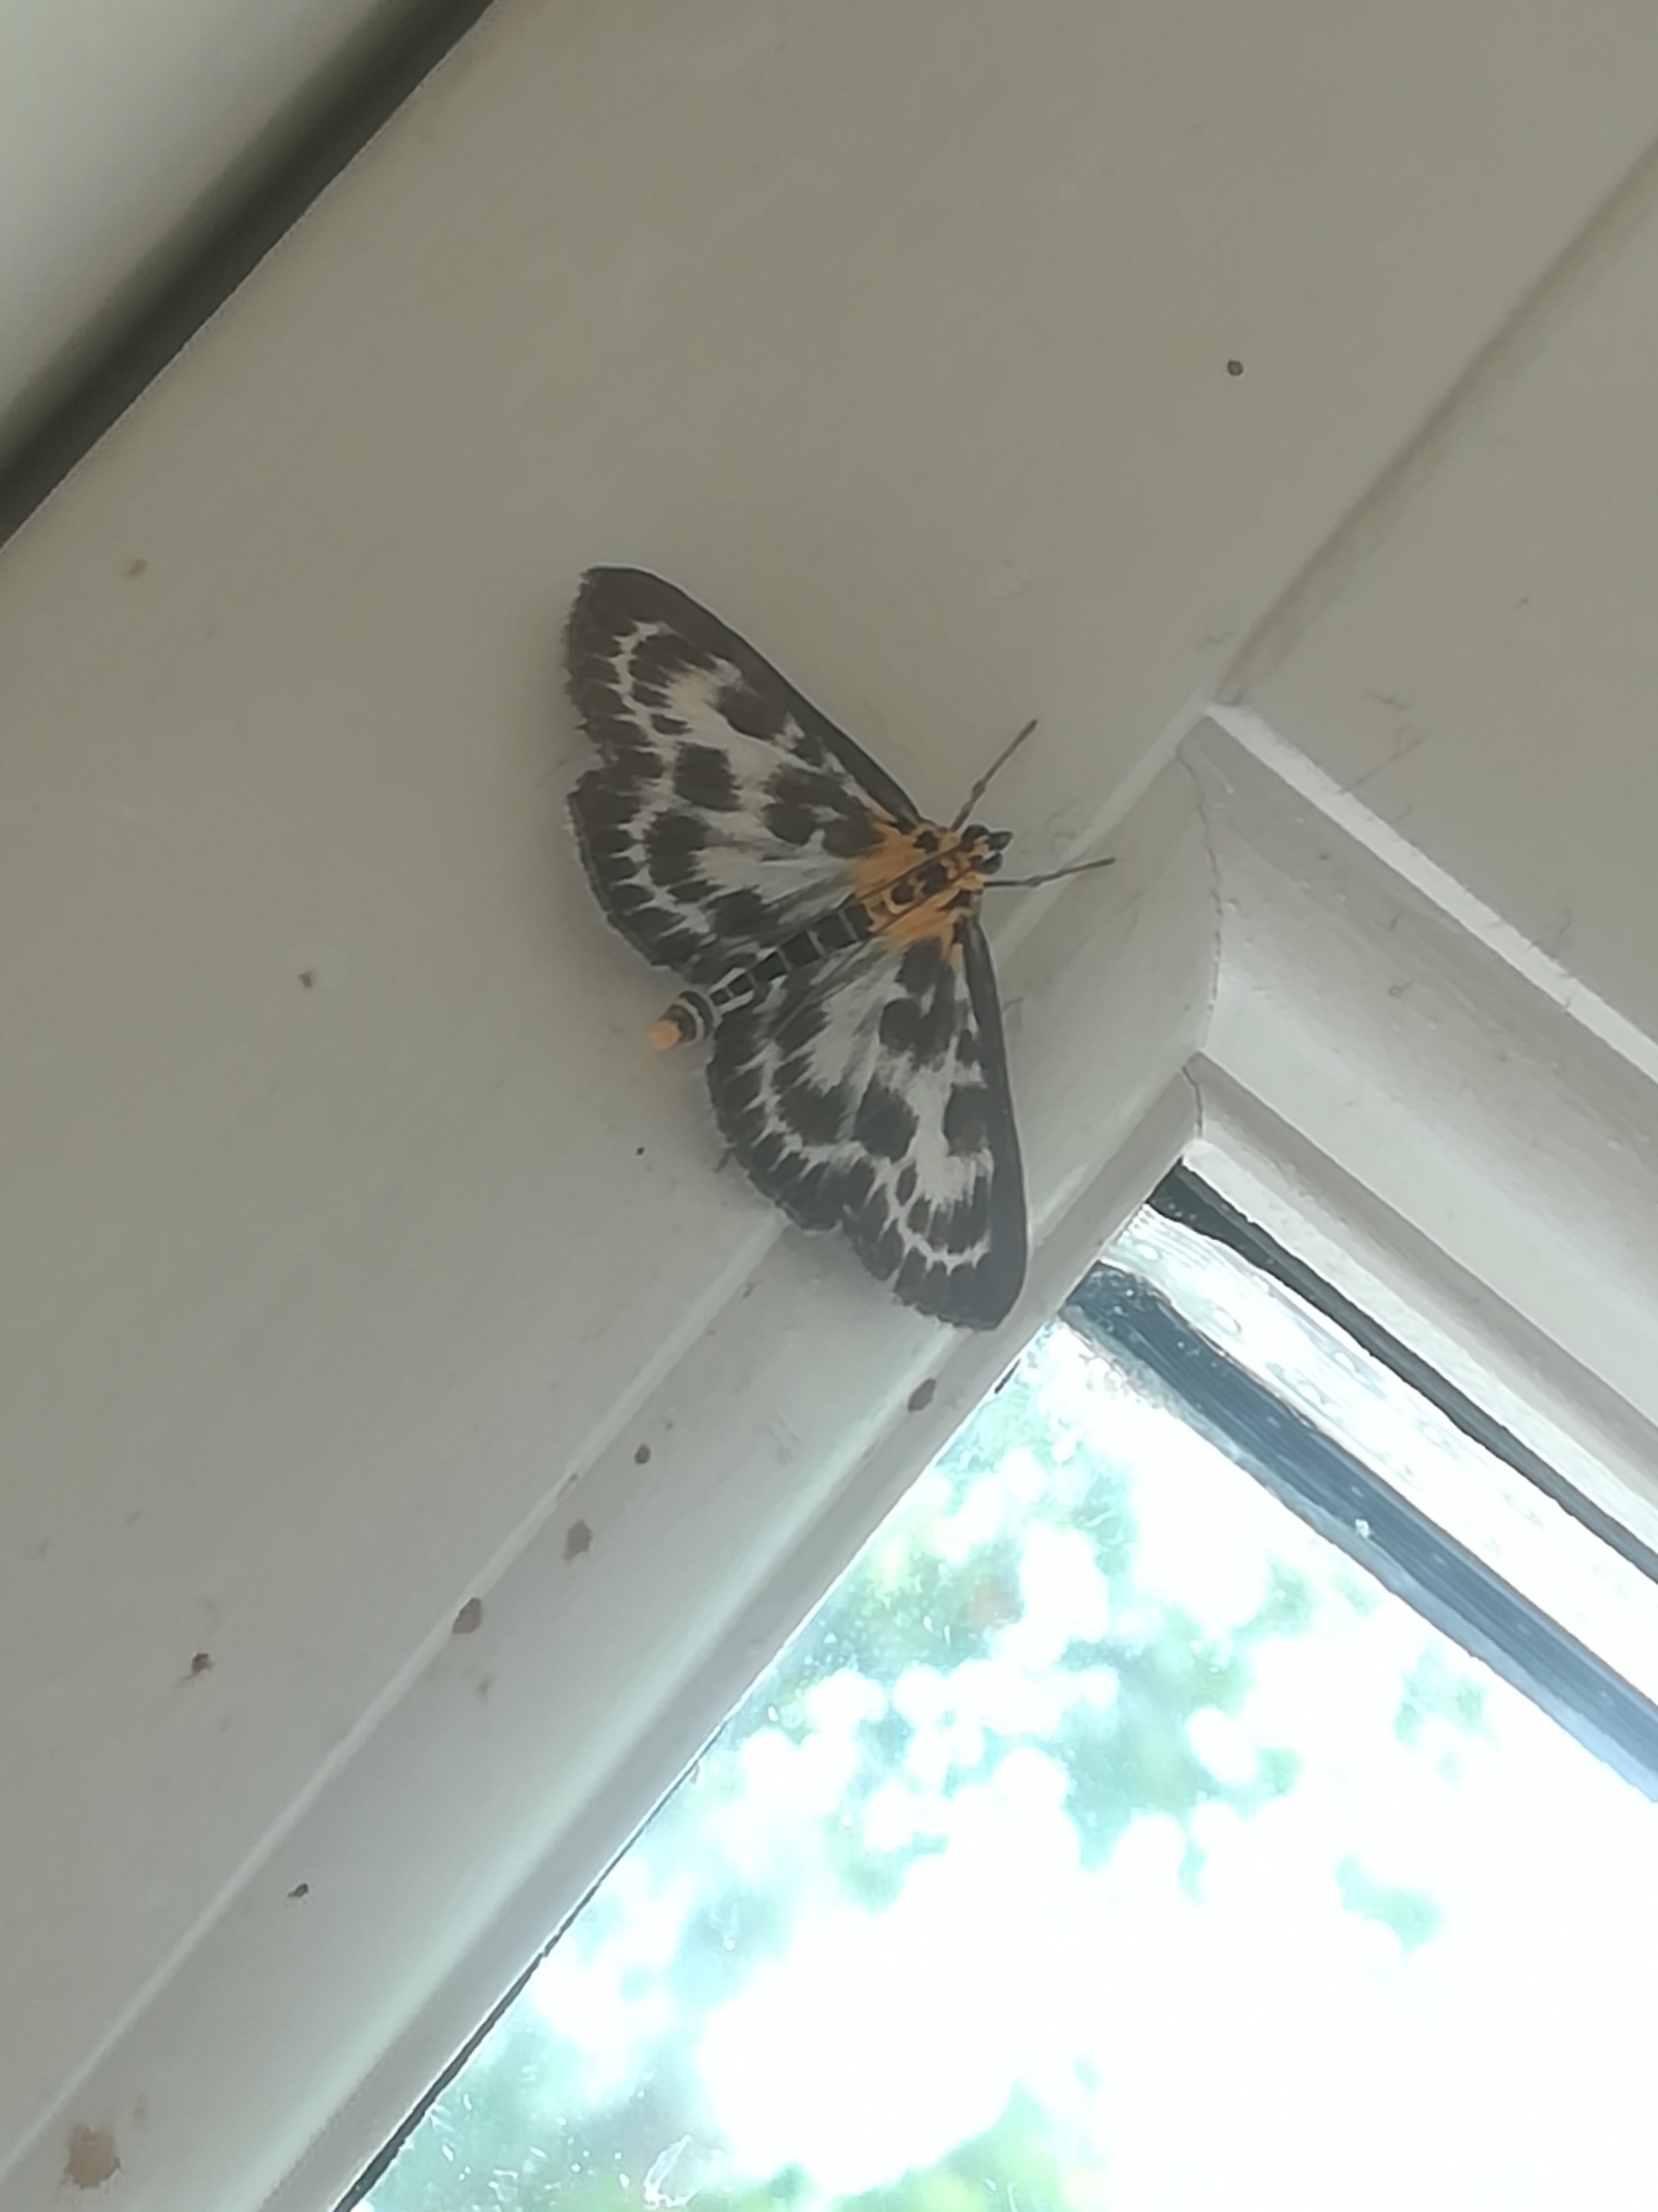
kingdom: Animalia
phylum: Arthropoda
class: Insecta
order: Lepidoptera
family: Crambidae
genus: Anania
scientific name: Anania hortulata
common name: Nældehalvmøl
